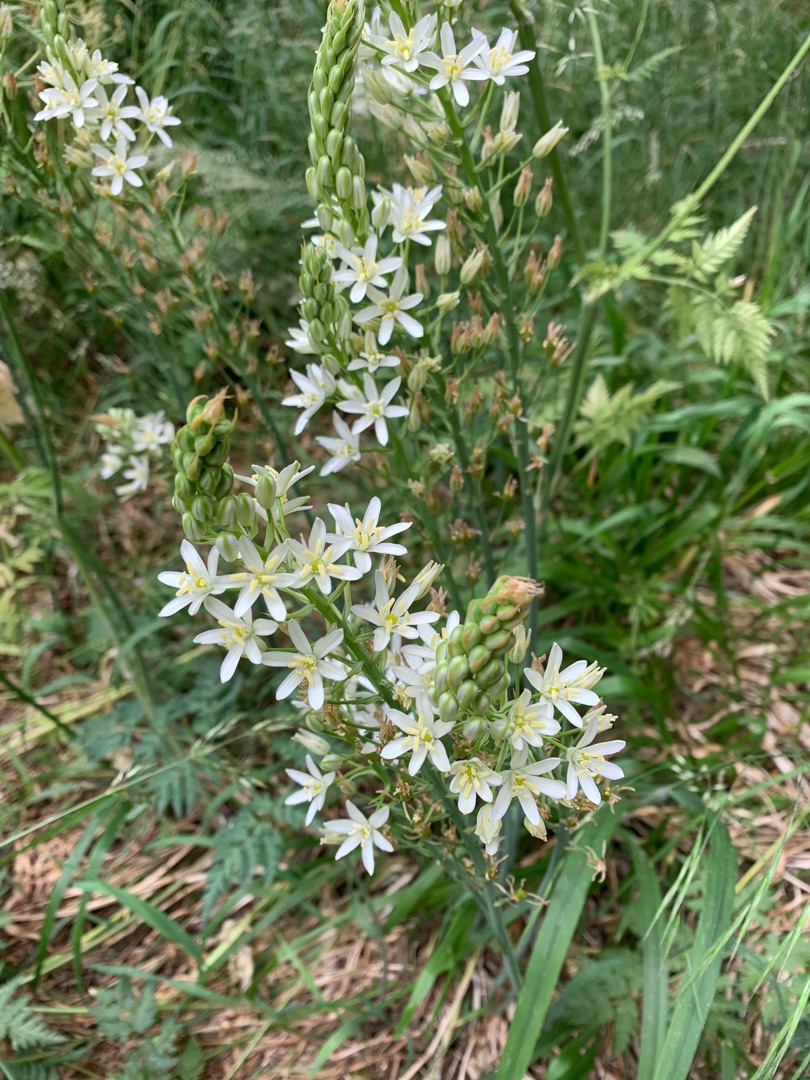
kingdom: Plantae
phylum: Tracheophyta
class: Liliopsida
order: Asparagales
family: Asparagaceae
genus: Ornithogalum
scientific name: Ornithogalum
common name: Fuglemælkslægten
